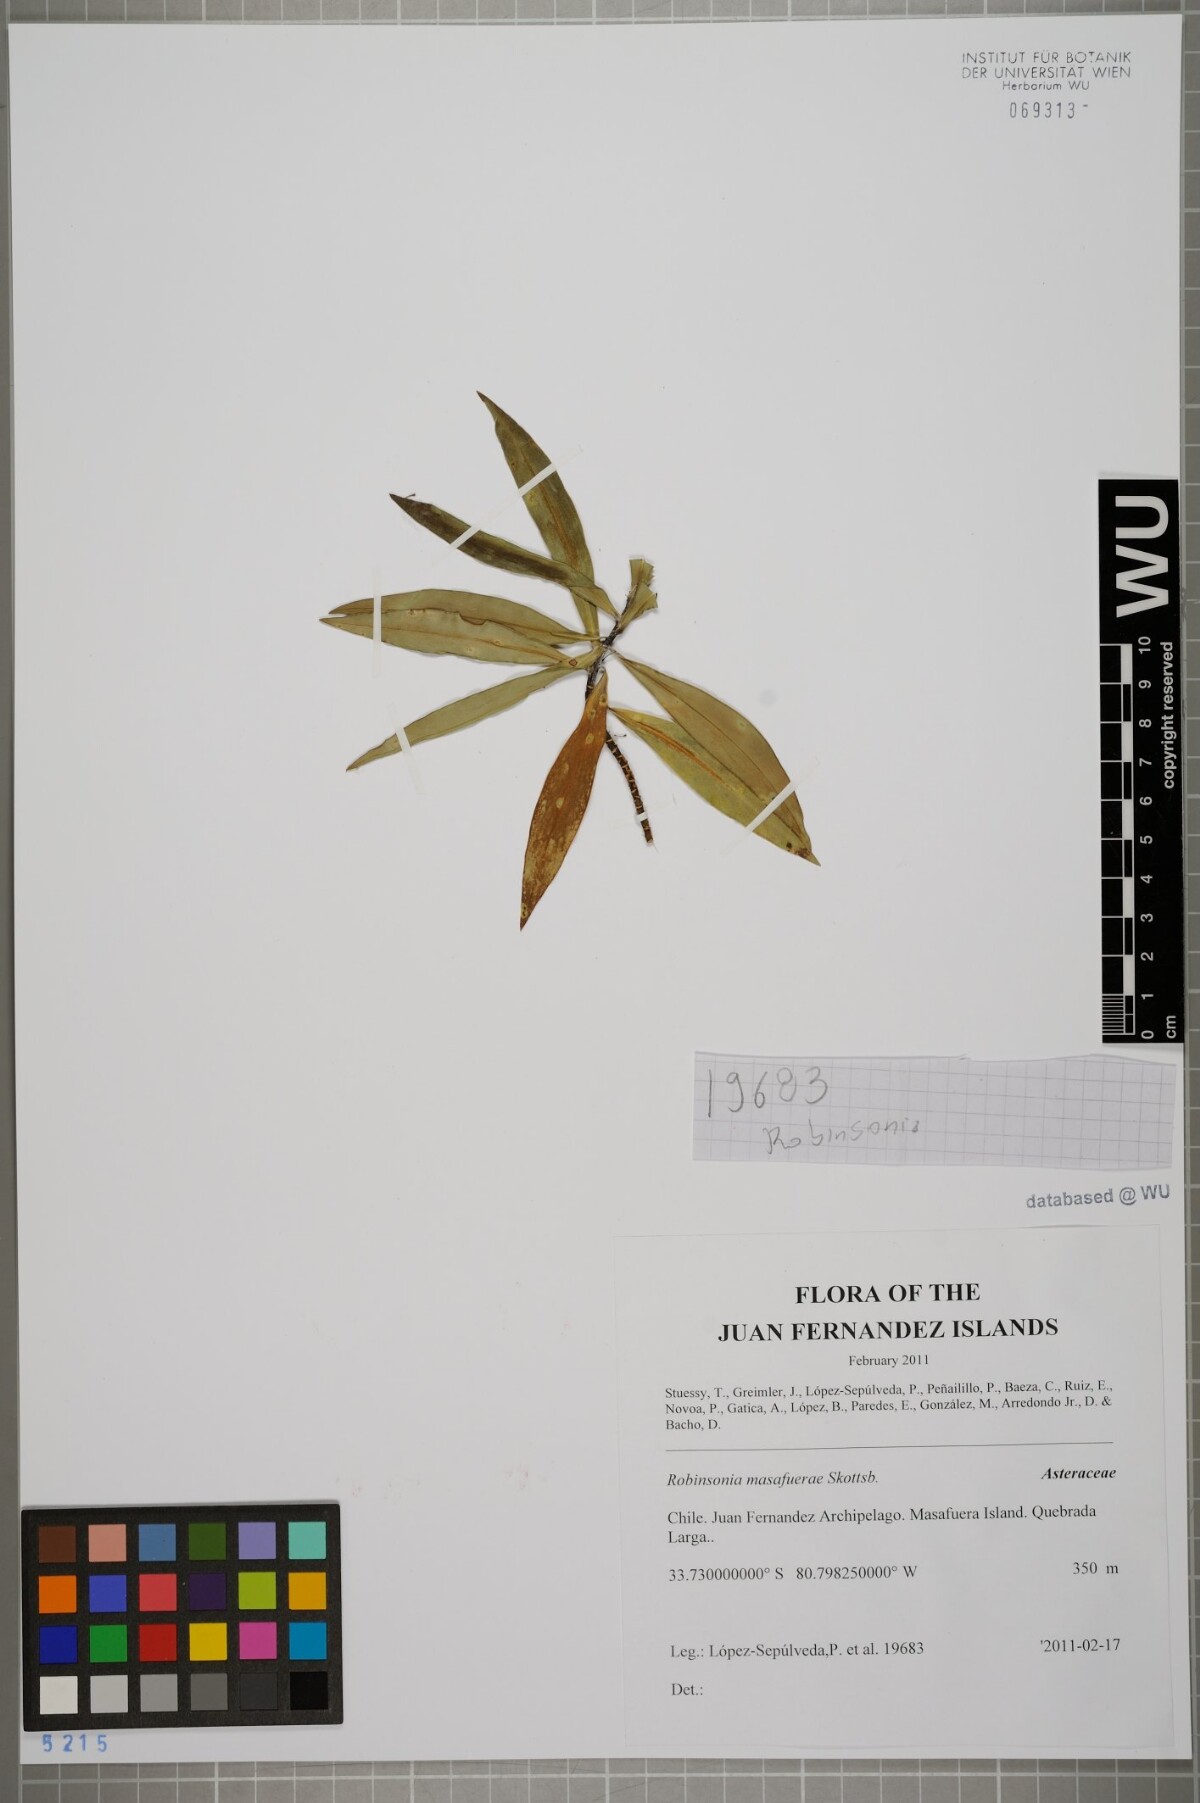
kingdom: Plantae
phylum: Tracheophyta
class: Magnoliopsida
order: Asterales
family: Asteraceae
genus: Robinsonia
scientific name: Robinsonia masafuerae
